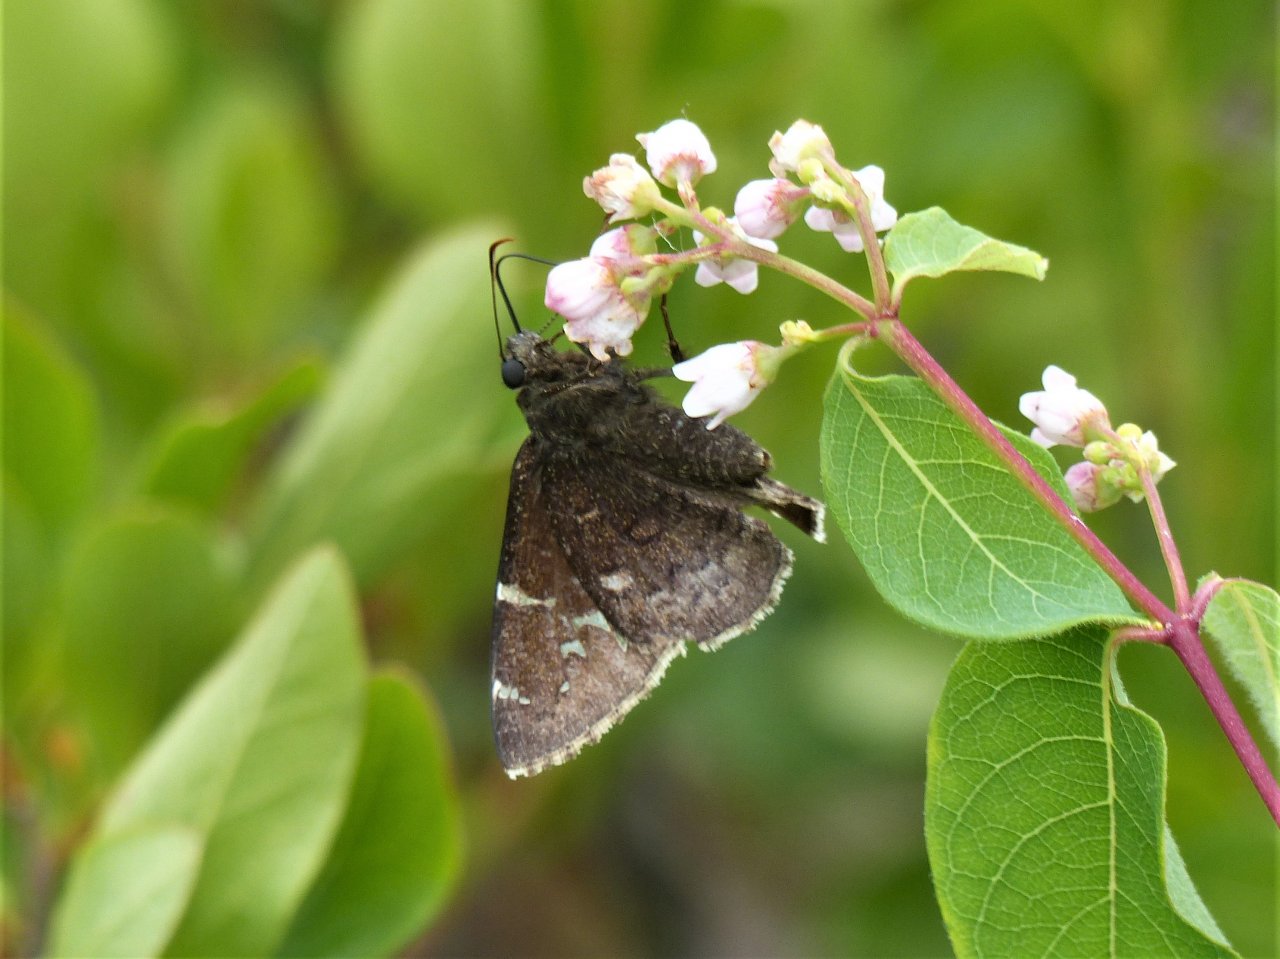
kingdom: Animalia
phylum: Arthropoda
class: Insecta
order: Lepidoptera
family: Hesperiidae
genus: Autochton
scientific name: Autochton
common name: Northern Cloudywing
